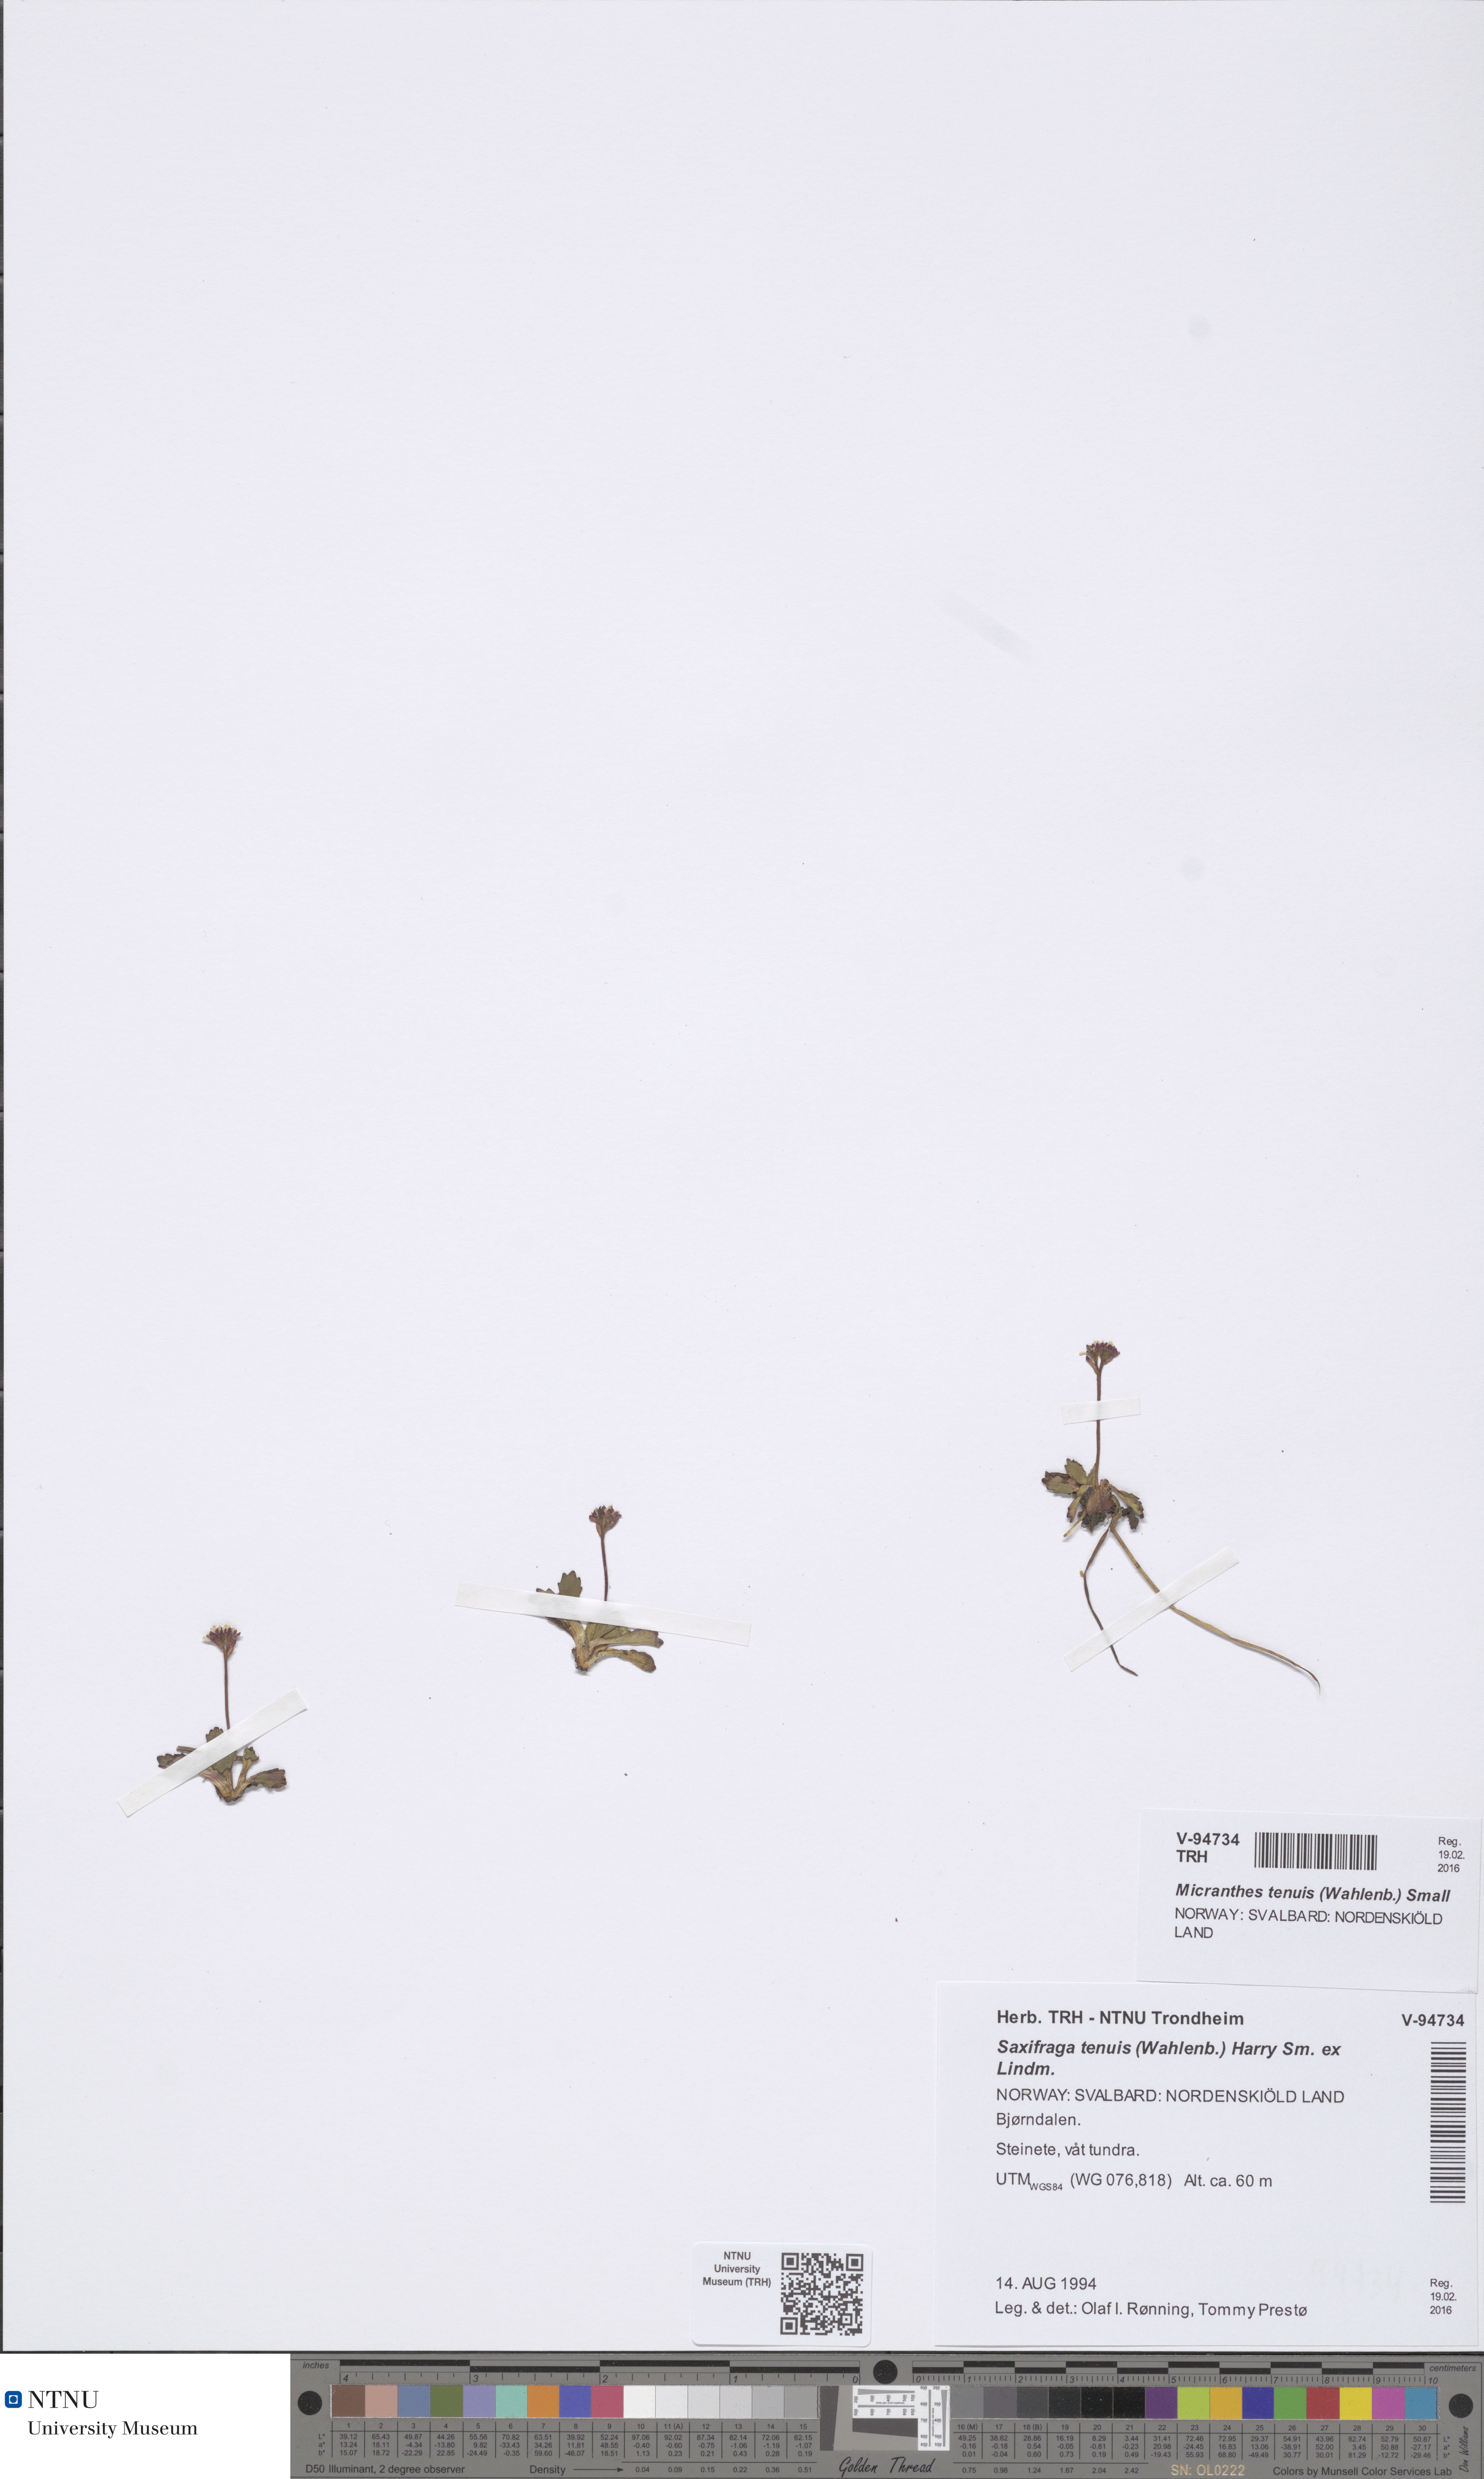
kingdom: Plantae
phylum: Tracheophyta
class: Magnoliopsida
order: Saxifragales
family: Saxifragaceae
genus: Micranthes
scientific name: Micranthes tenuis
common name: Ottertail pass saxifrage
